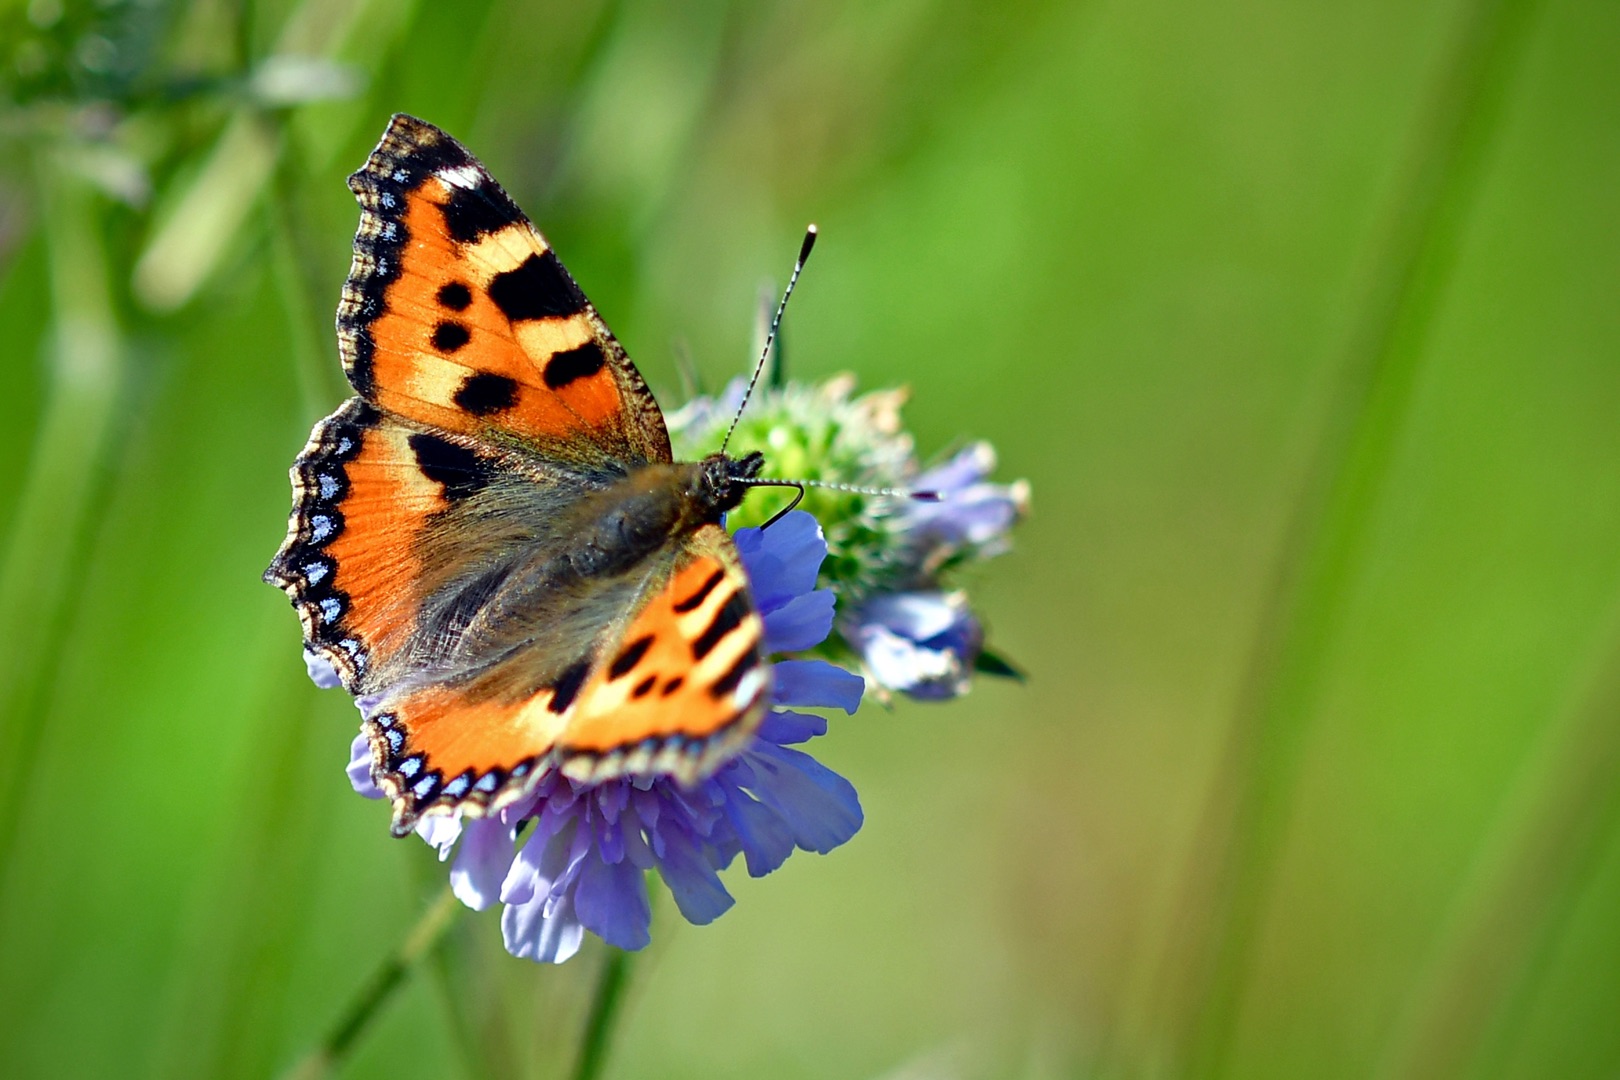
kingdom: Animalia
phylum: Arthropoda
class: Insecta
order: Lepidoptera
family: Nymphalidae
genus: Aglais
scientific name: Aglais urticae
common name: Nældens takvinge
